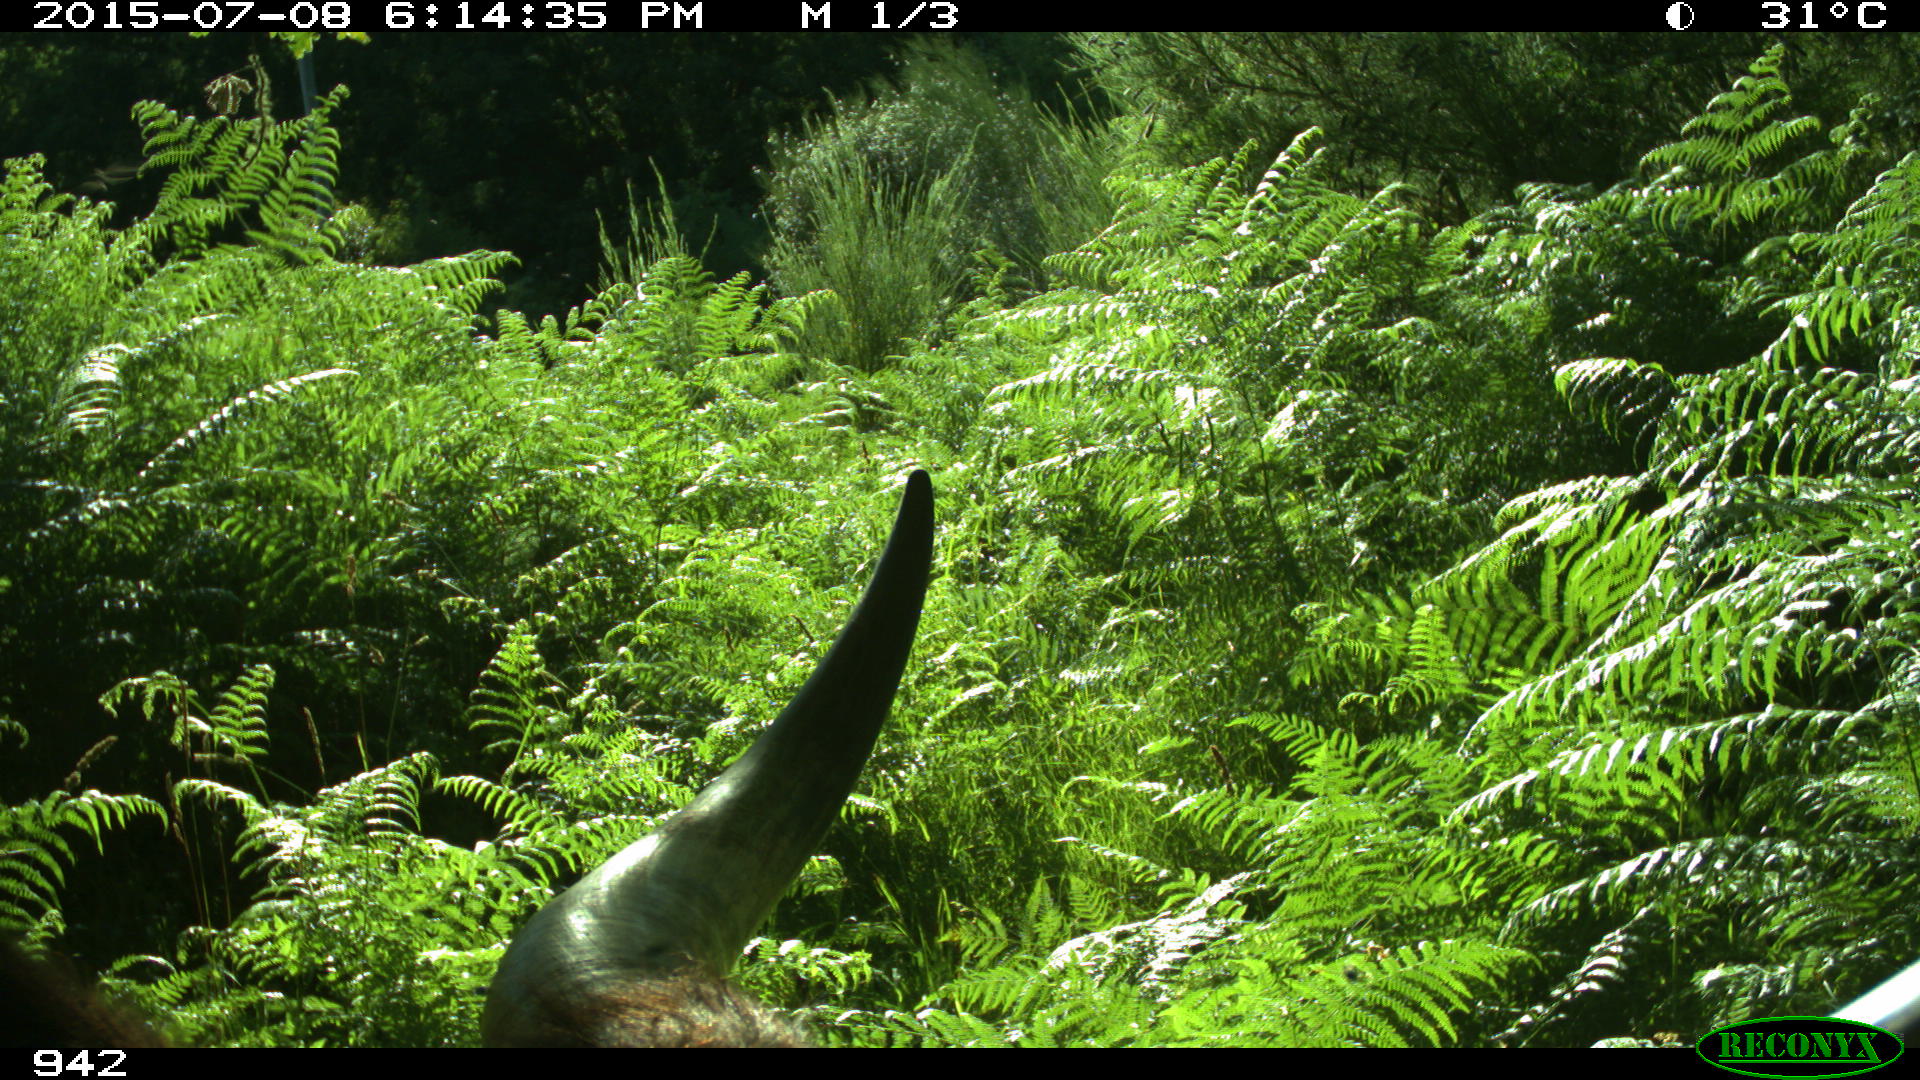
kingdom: Animalia
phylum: Chordata
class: Mammalia
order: Artiodactyla
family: Bovidae
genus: Bos
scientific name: Bos taurus
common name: Domesticated cattle
